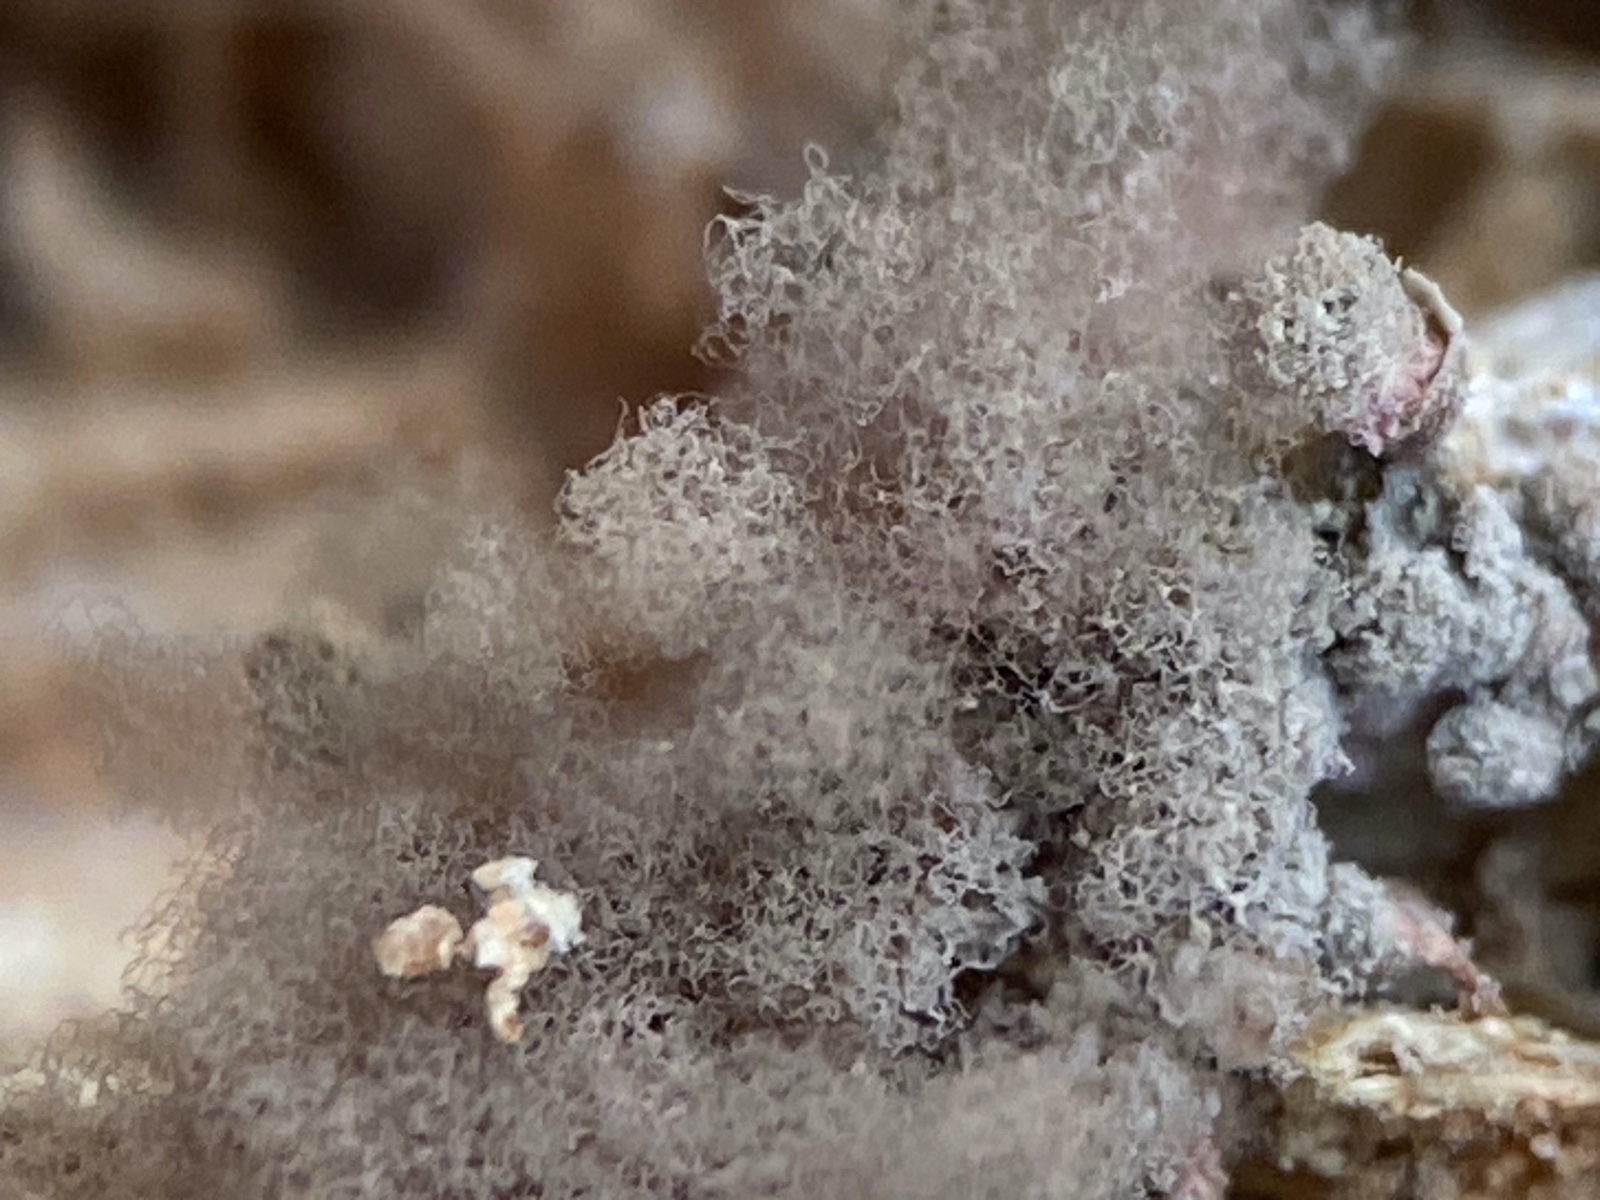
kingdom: Protozoa
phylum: Amoebozoa
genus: Arcyria
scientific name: Arcyria
